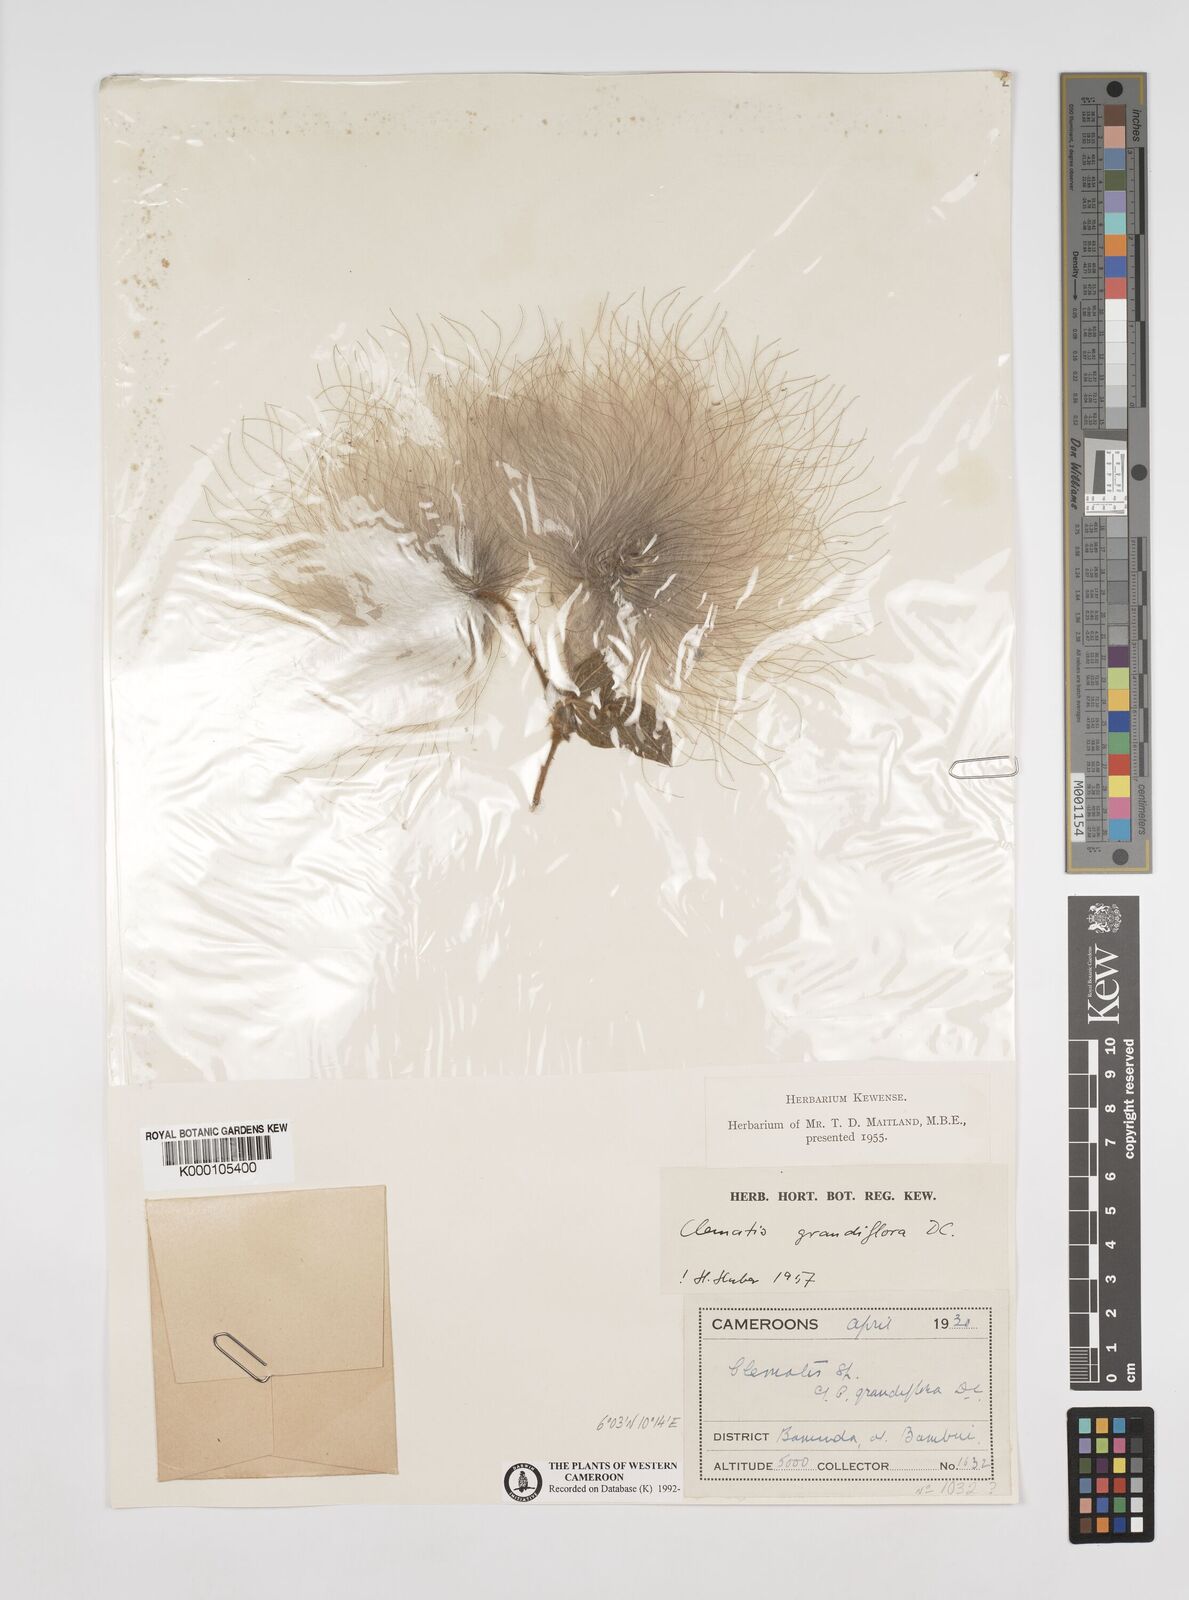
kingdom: Plantae
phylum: Tracheophyta
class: Magnoliopsida
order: Ranunculales
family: Ranunculaceae
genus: Clematis
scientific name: Clematis grandiflora
